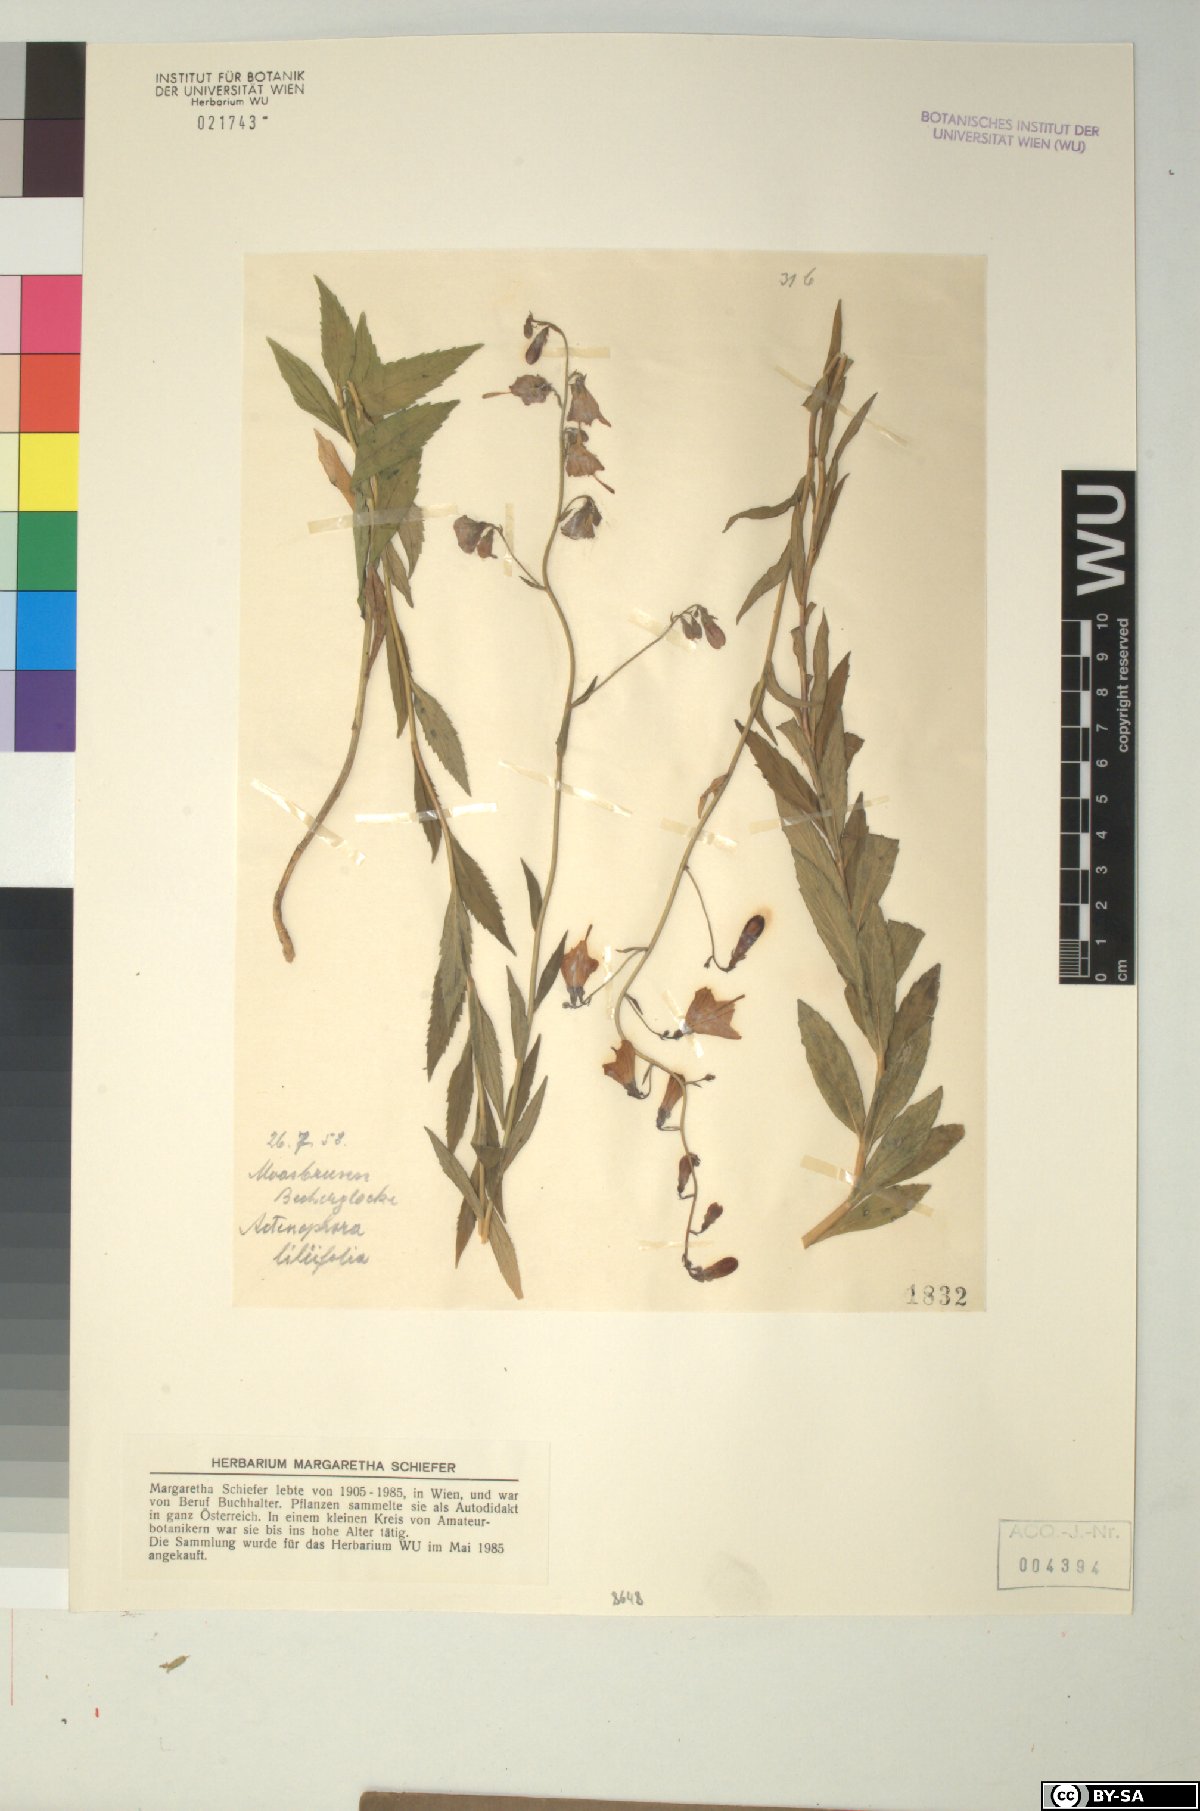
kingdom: Plantae
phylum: Tracheophyta
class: Magnoliopsida
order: Asterales
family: Campanulaceae
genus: Adenophora
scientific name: Adenophora liliifolia
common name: Lilyleaf ladybells
